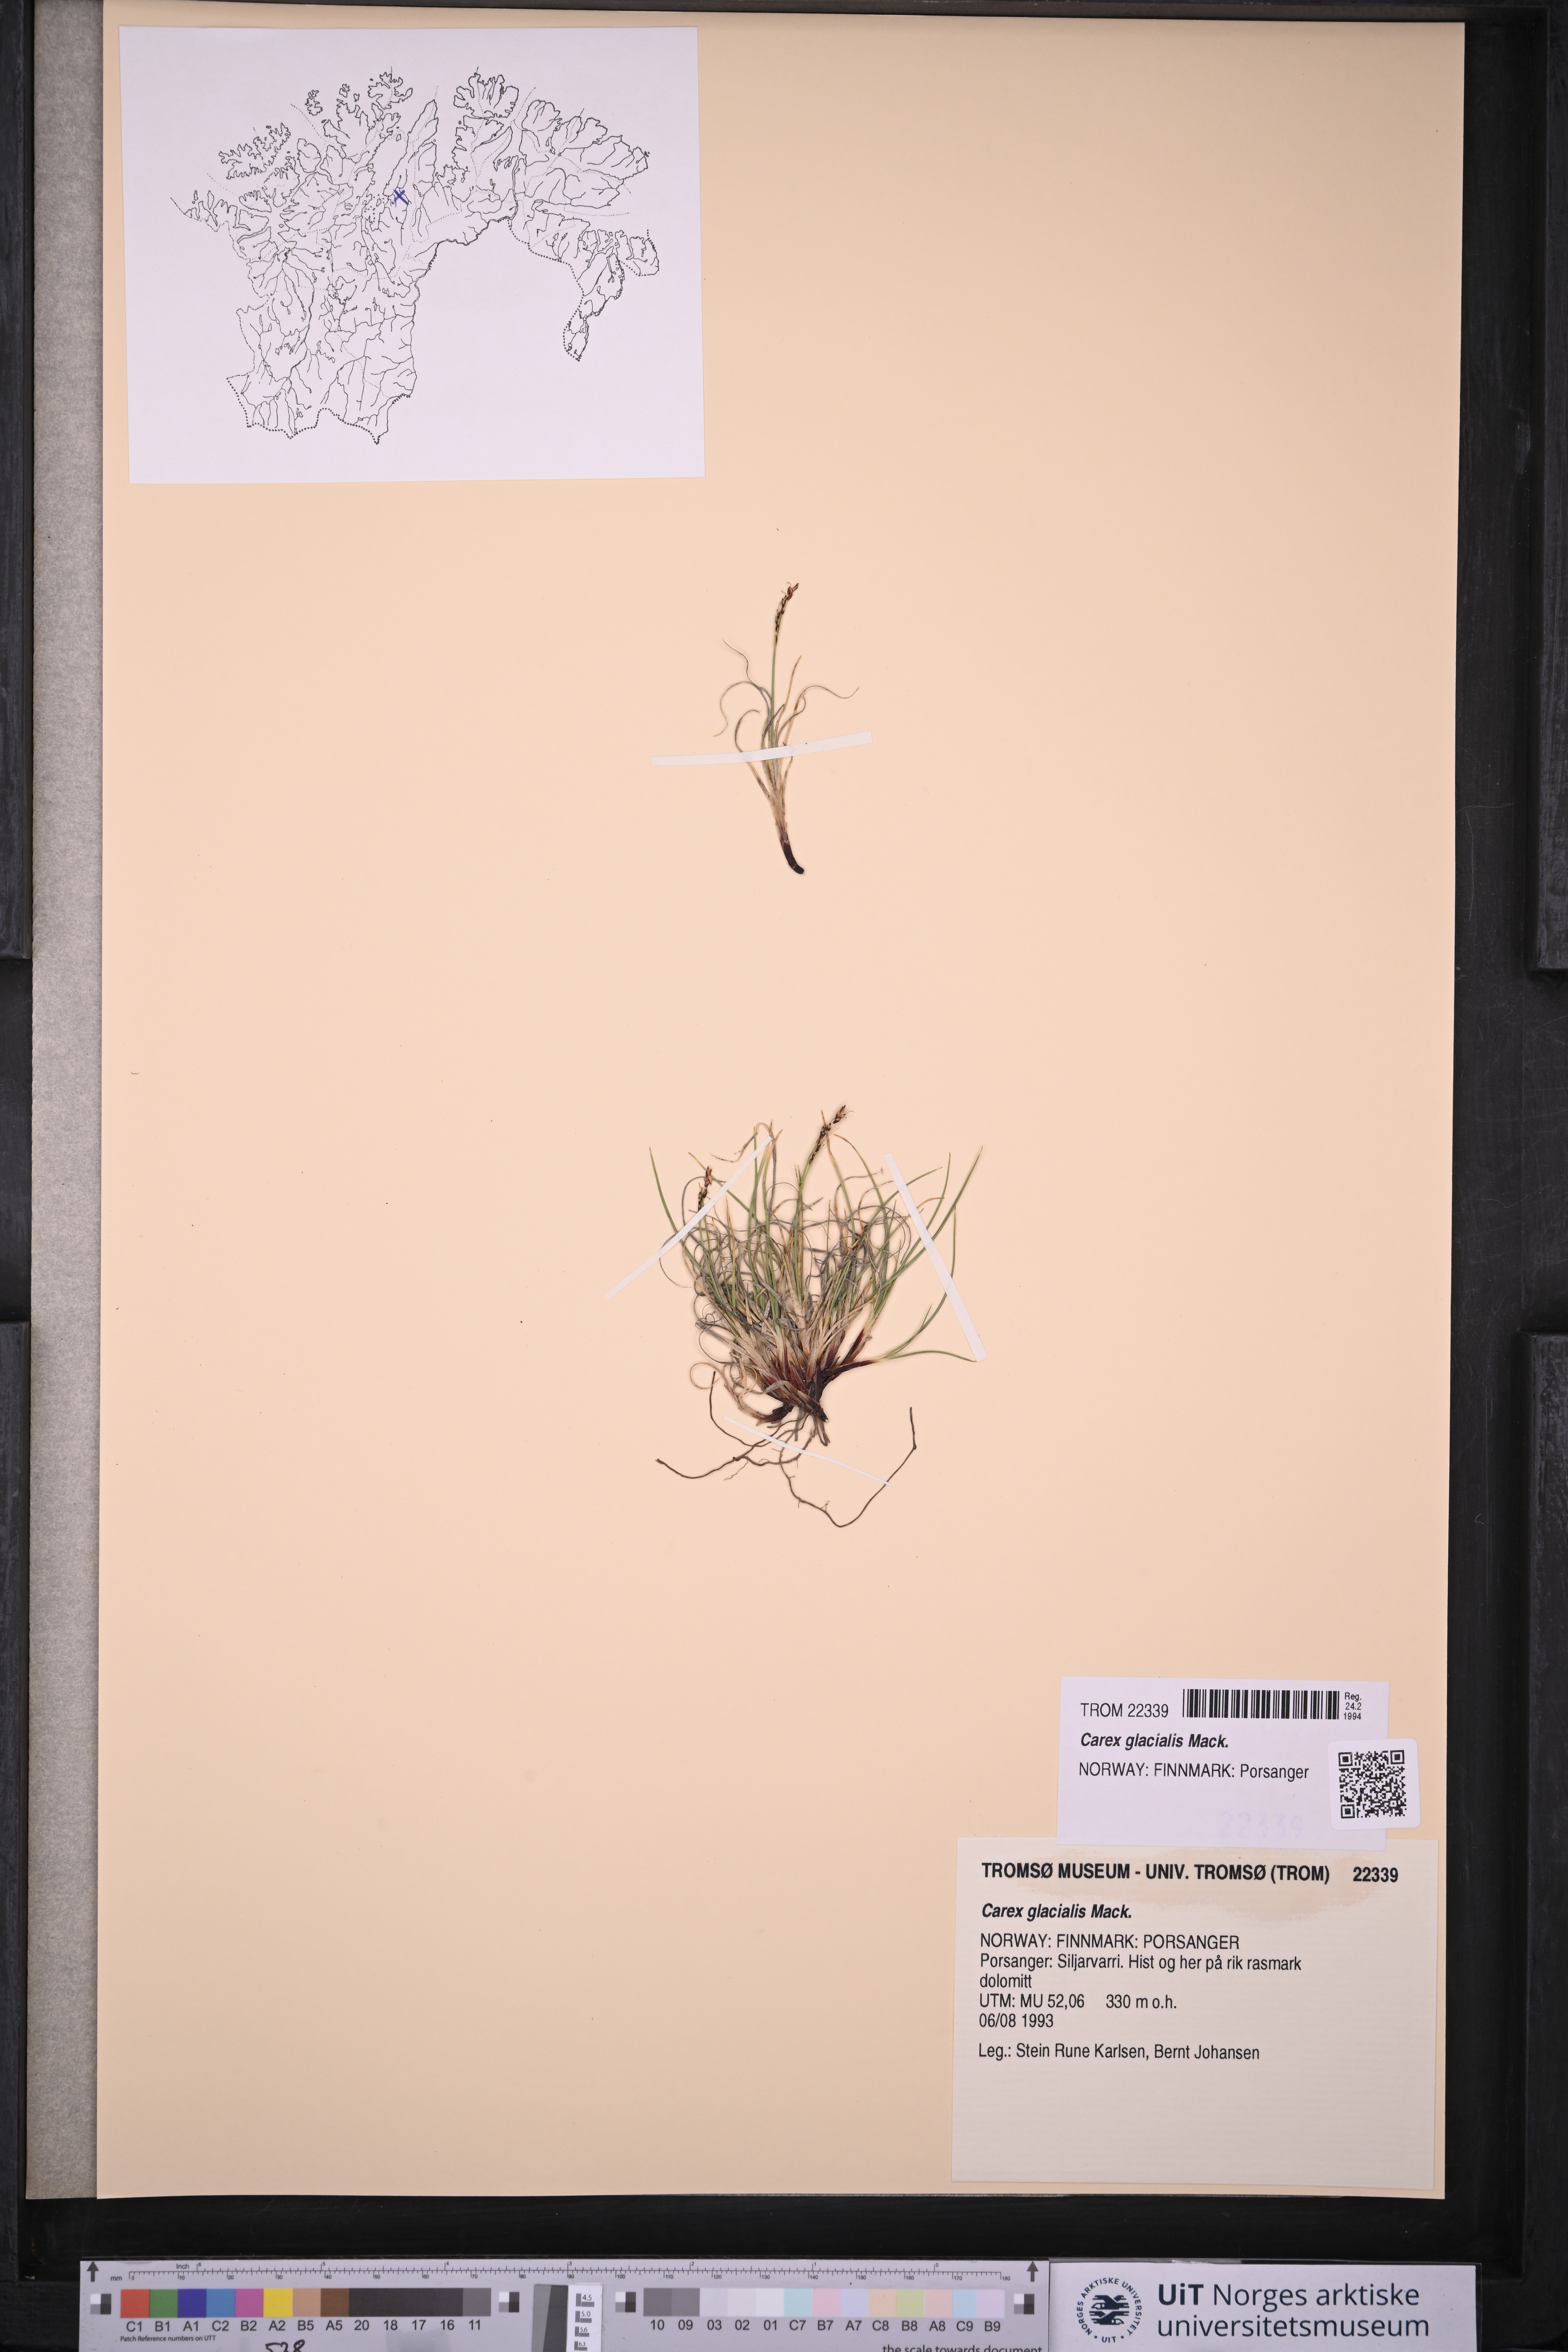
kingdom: Plantae
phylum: Tracheophyta
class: Liliopsida
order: Poales
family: Cyperaceae
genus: Carex
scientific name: Carex glacialis
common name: Newfoundland sedge
